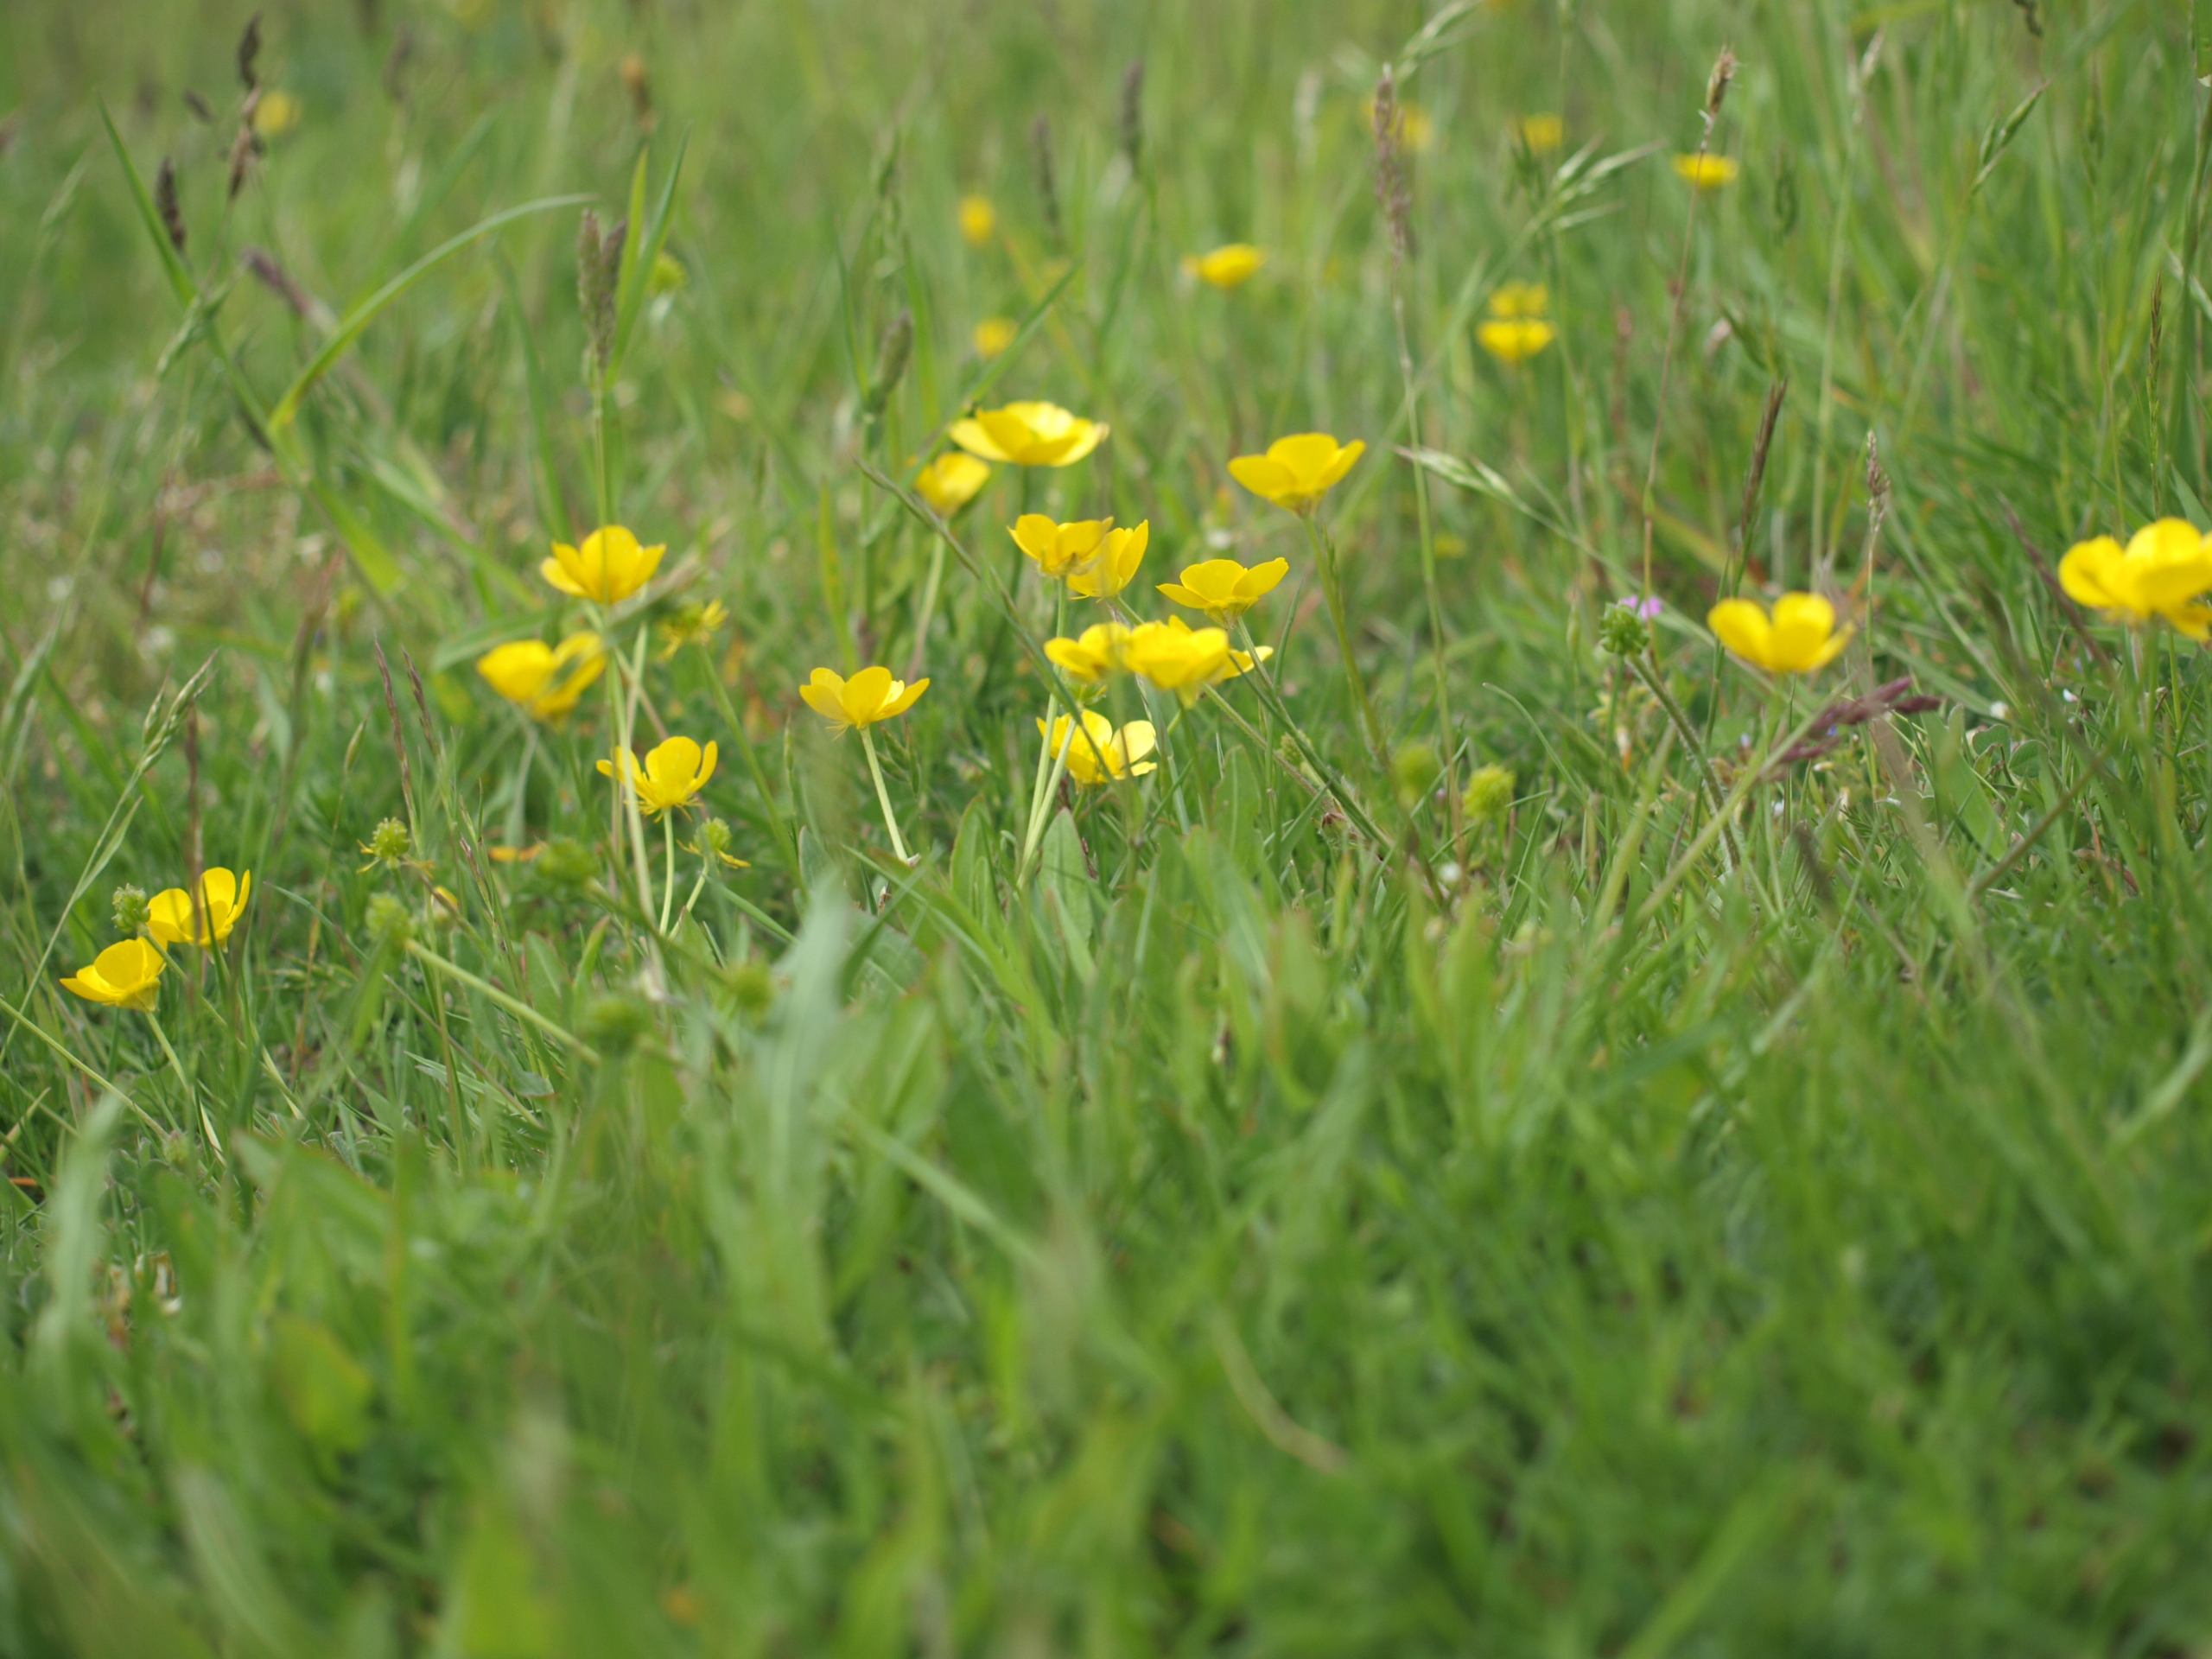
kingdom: Plantae
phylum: Tracheophyta
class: Magnoliopsida
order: Ranunculales
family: Ranunculaceae
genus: Ranunculus
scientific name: Ranunculus bulbosus
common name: Knold-ranunkel
